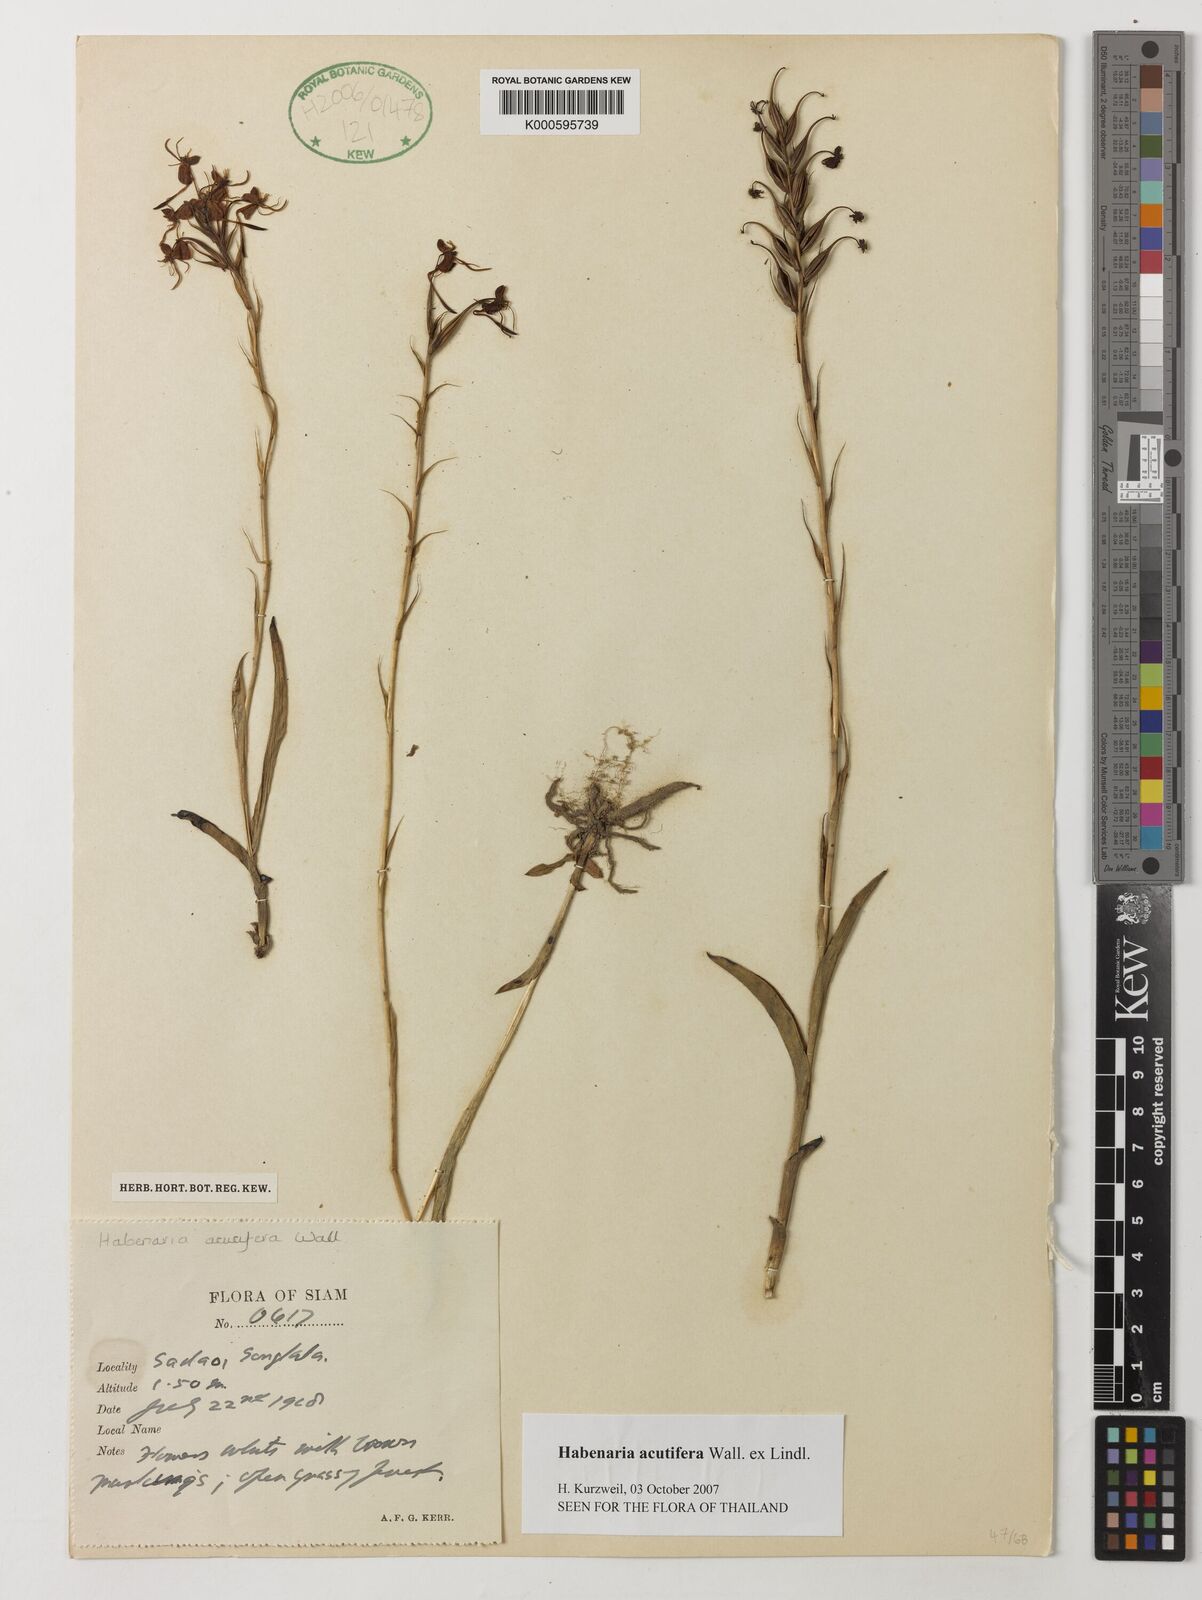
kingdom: Plantae
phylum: Tracheophyta
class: Liliopsida
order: Asparagales
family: Orchidaceae
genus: Habenaria
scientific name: Habenaria acuifera
